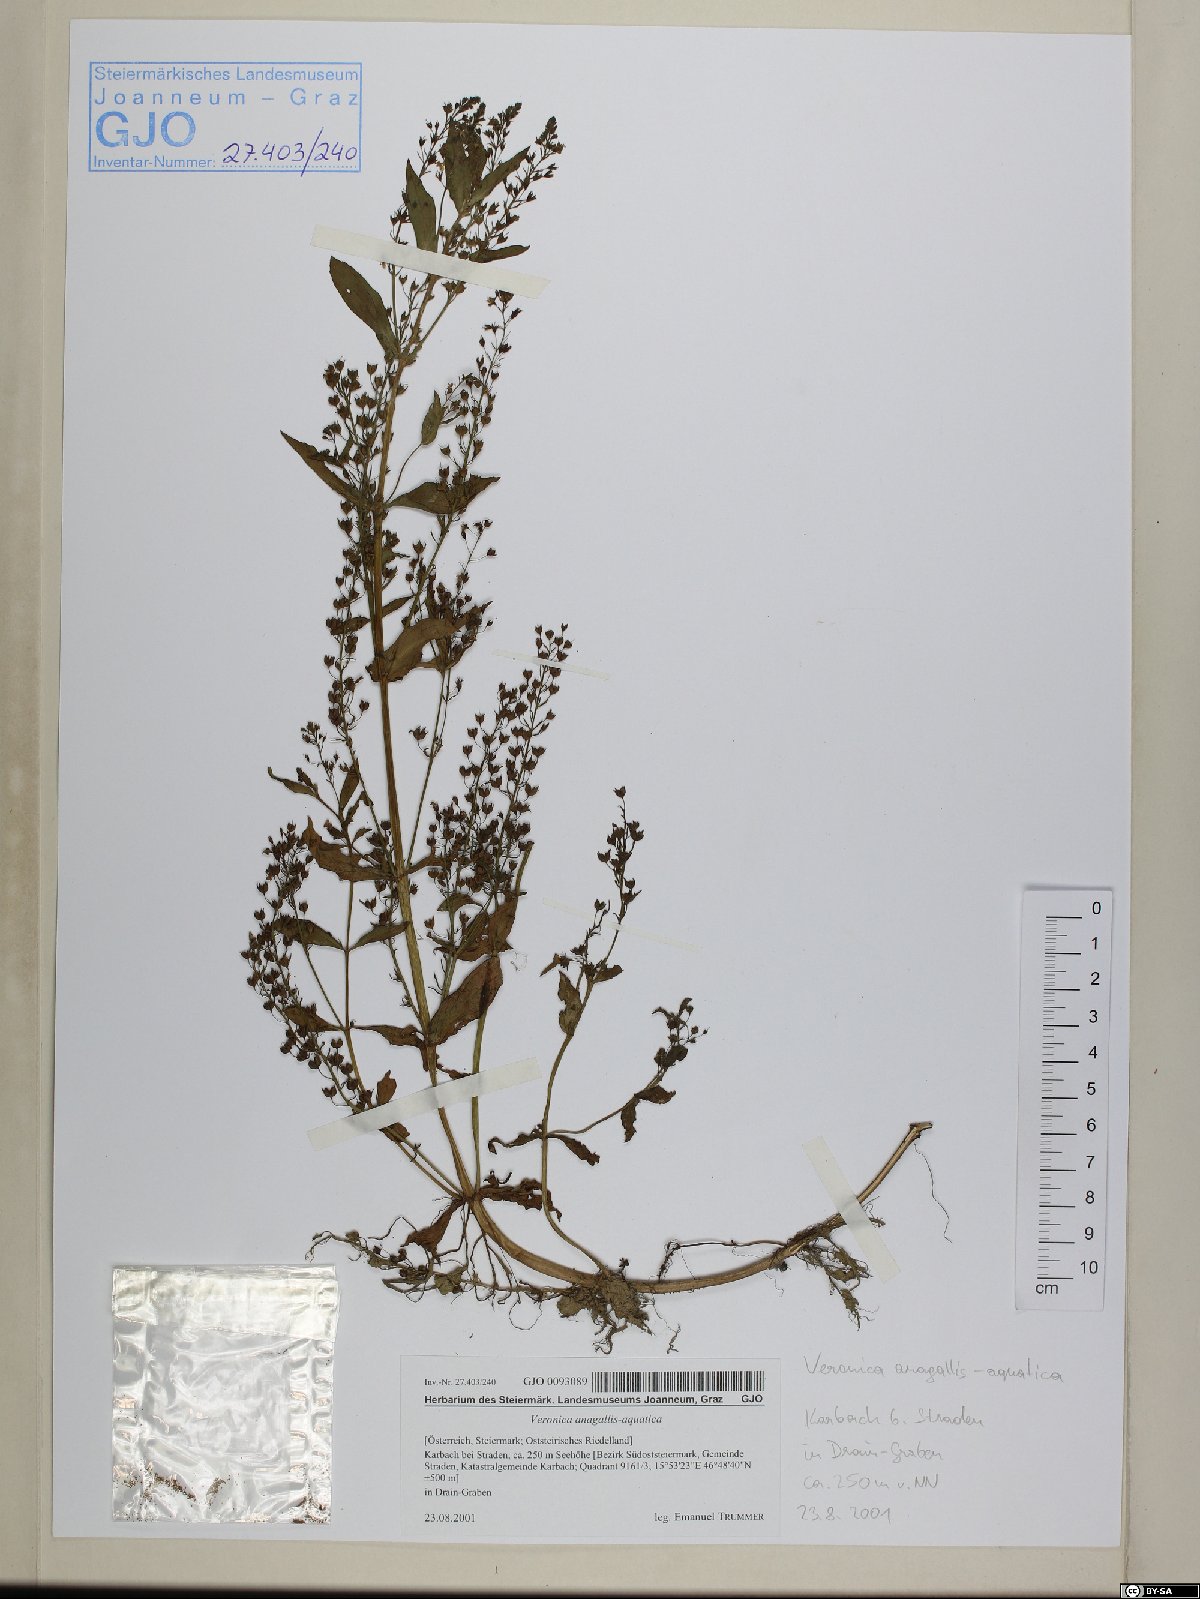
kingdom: Plantae
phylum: Tracheophyta
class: Magnoliopsida
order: Lamiales
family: Plantaginaceae
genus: Veronica
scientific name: Veronica anagallis-aquatica
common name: Water speedwell
